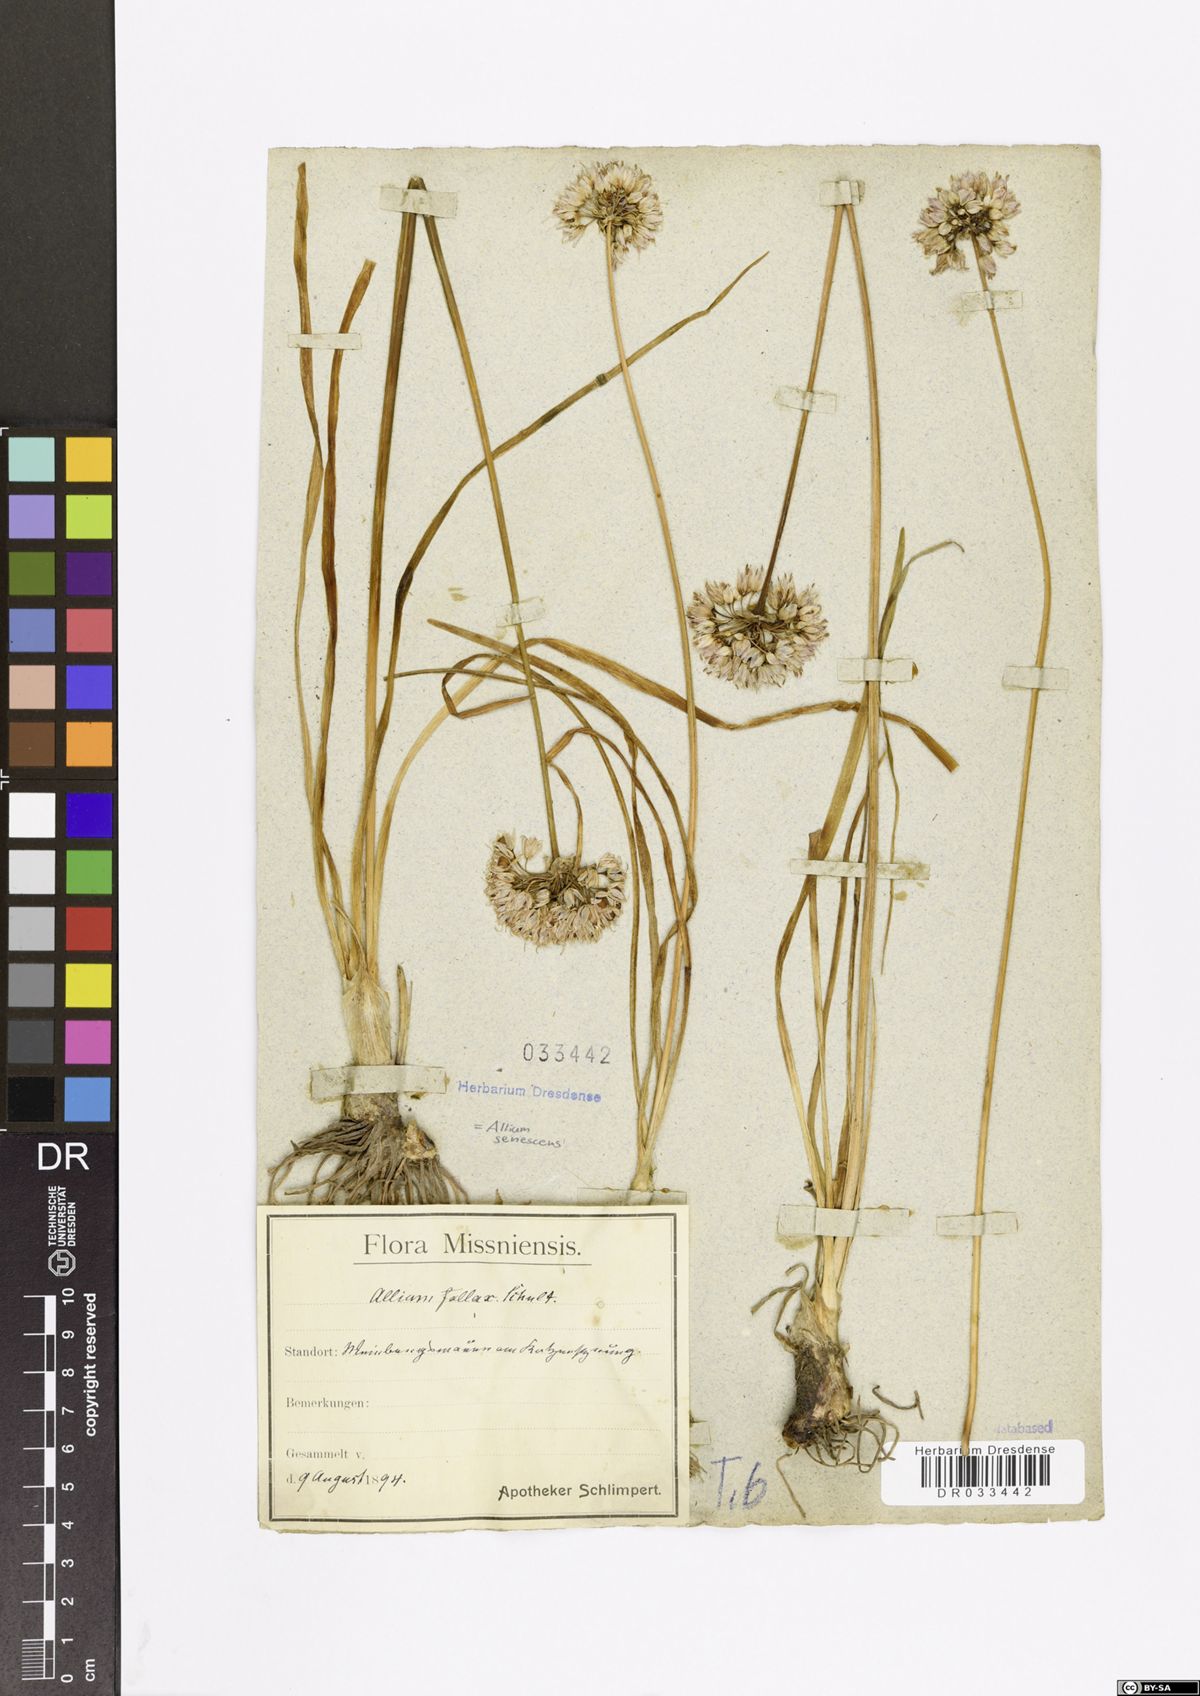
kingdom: Plantae
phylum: Tracheophyta
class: Liliopsida
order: Asparagales
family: Amaryllidaceae
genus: Allium
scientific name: Allium senescens
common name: German garlic
